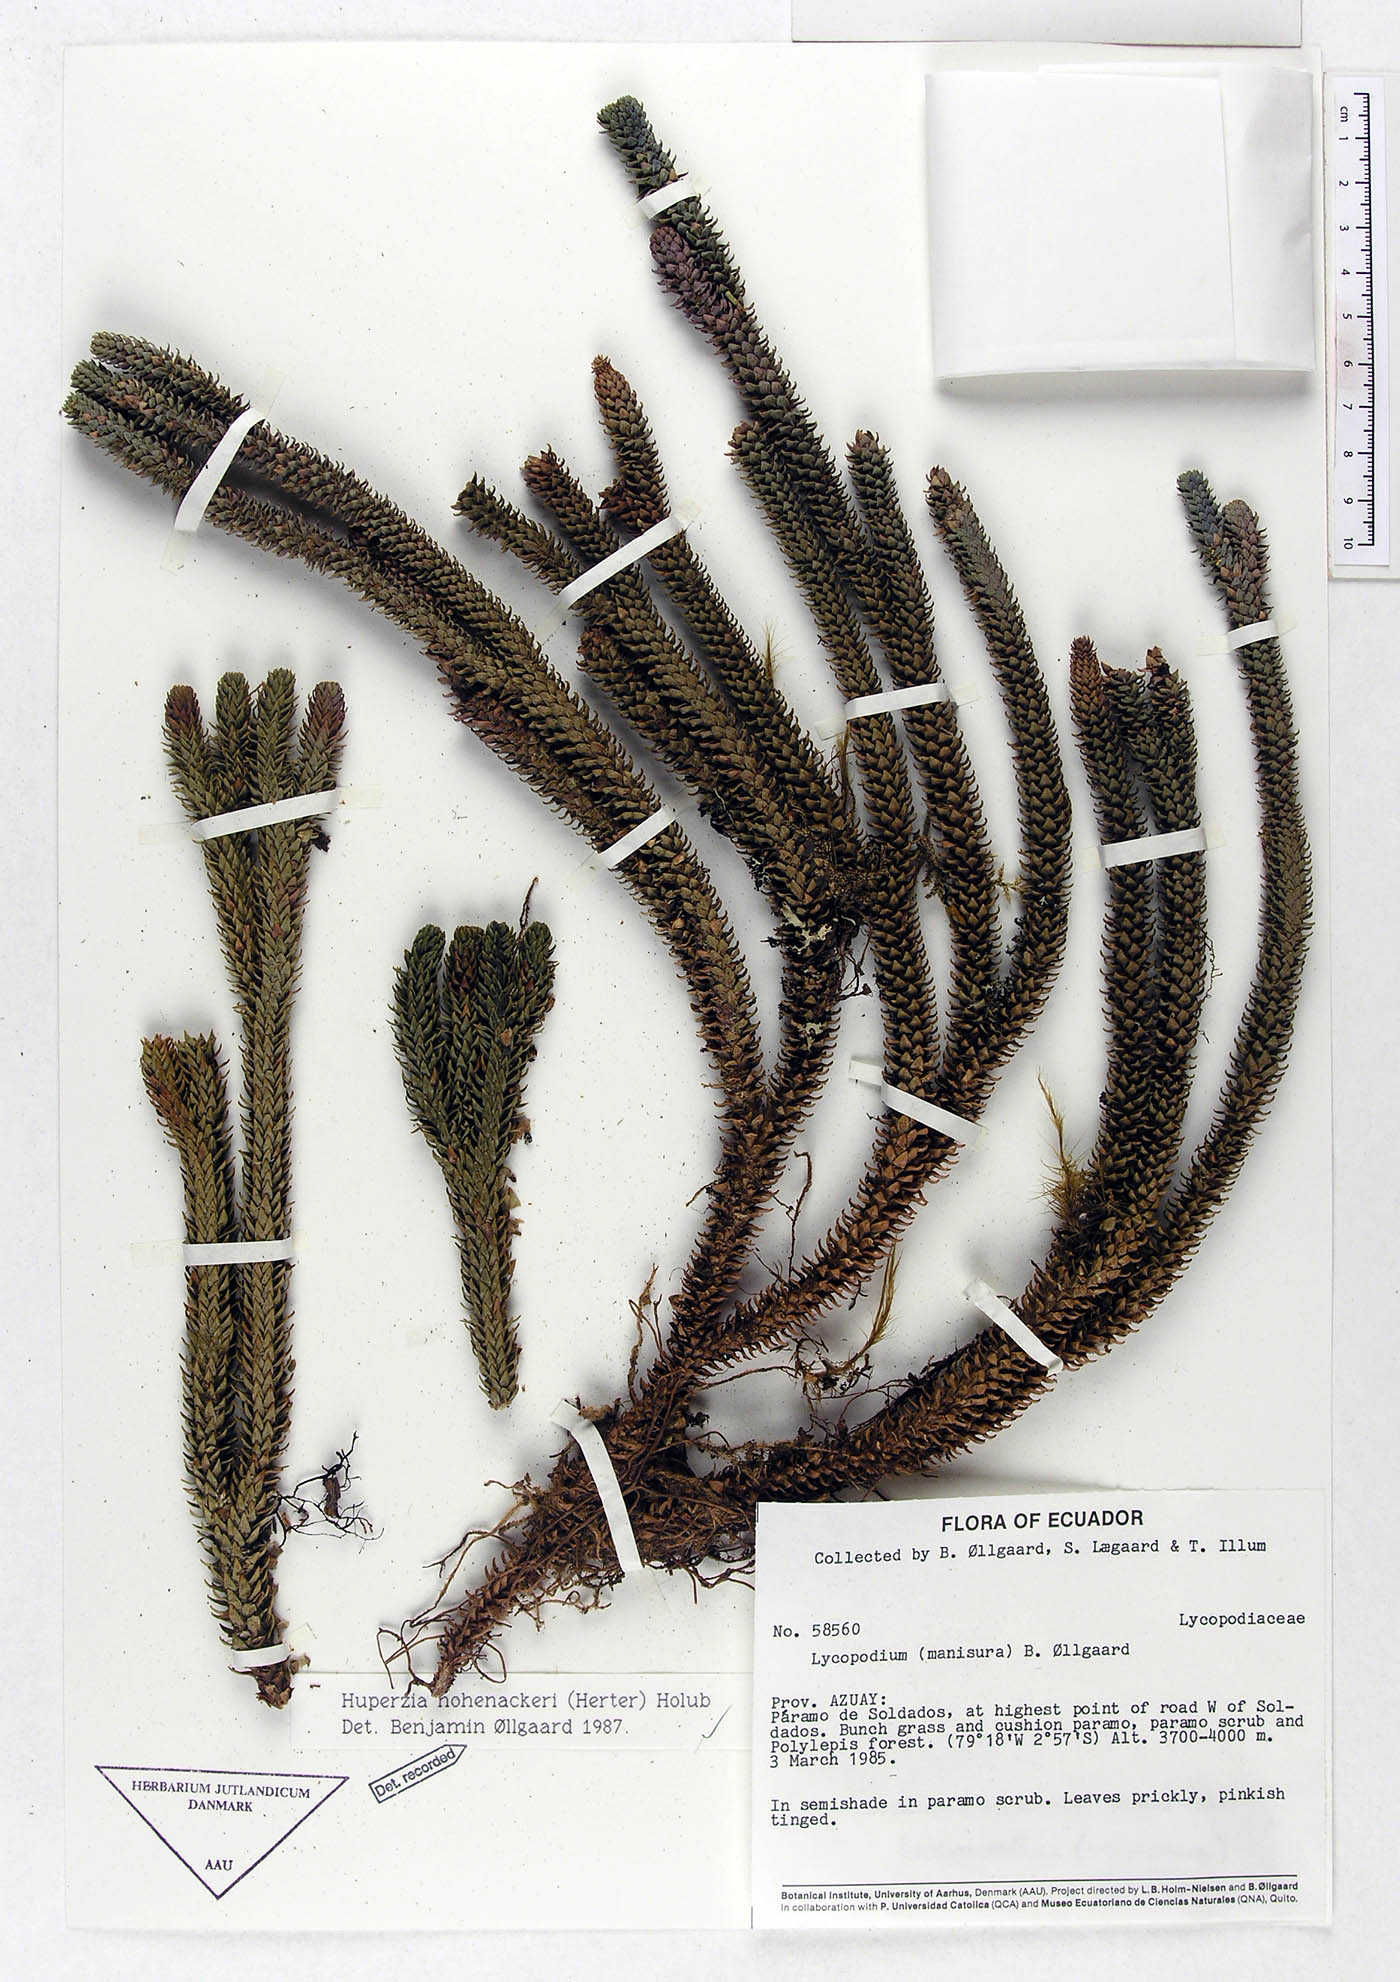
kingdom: Plantae
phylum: Tracheophyta
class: Lycopodiopsida
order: Lycopodiales
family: Lycopodiaceae
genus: Phlegmariurus
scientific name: Phlegmariurus hohenackeri
